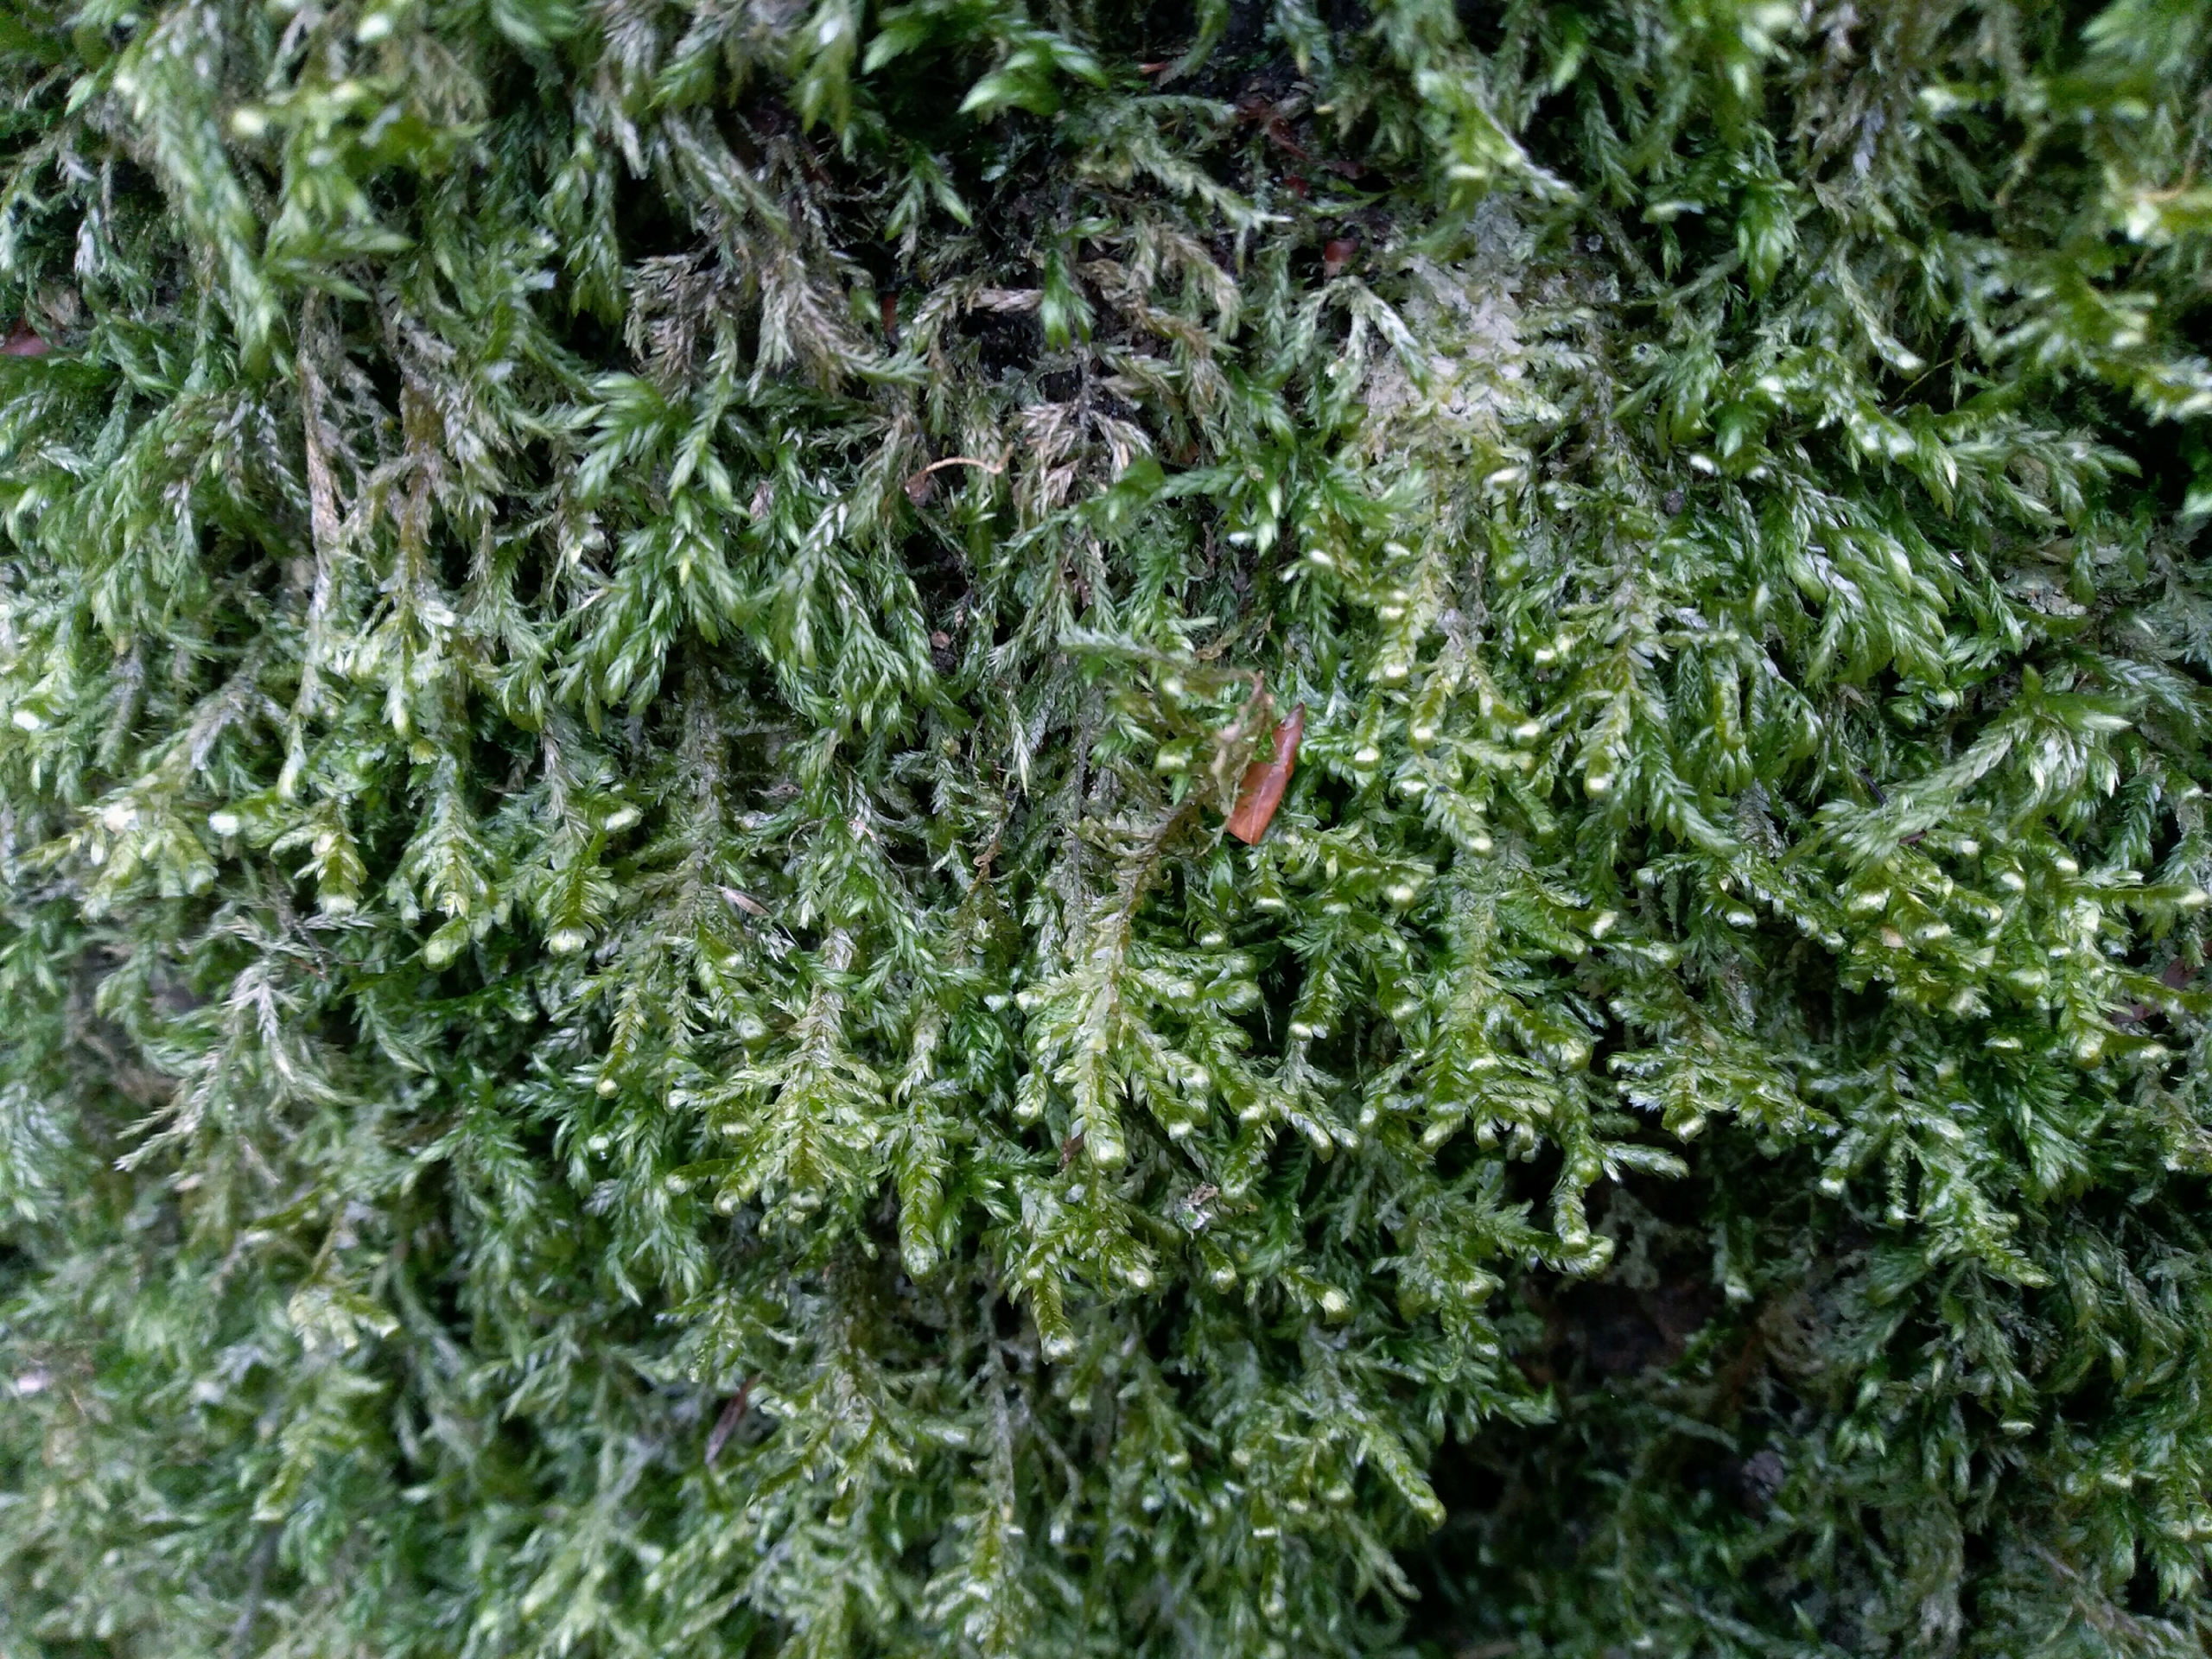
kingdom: Plantae
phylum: Bryophyta
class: Bryopsida
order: Hypnales
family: Neckeraceae
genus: Alleniella
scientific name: Alleniella complanata
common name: Almindelig fladmos
